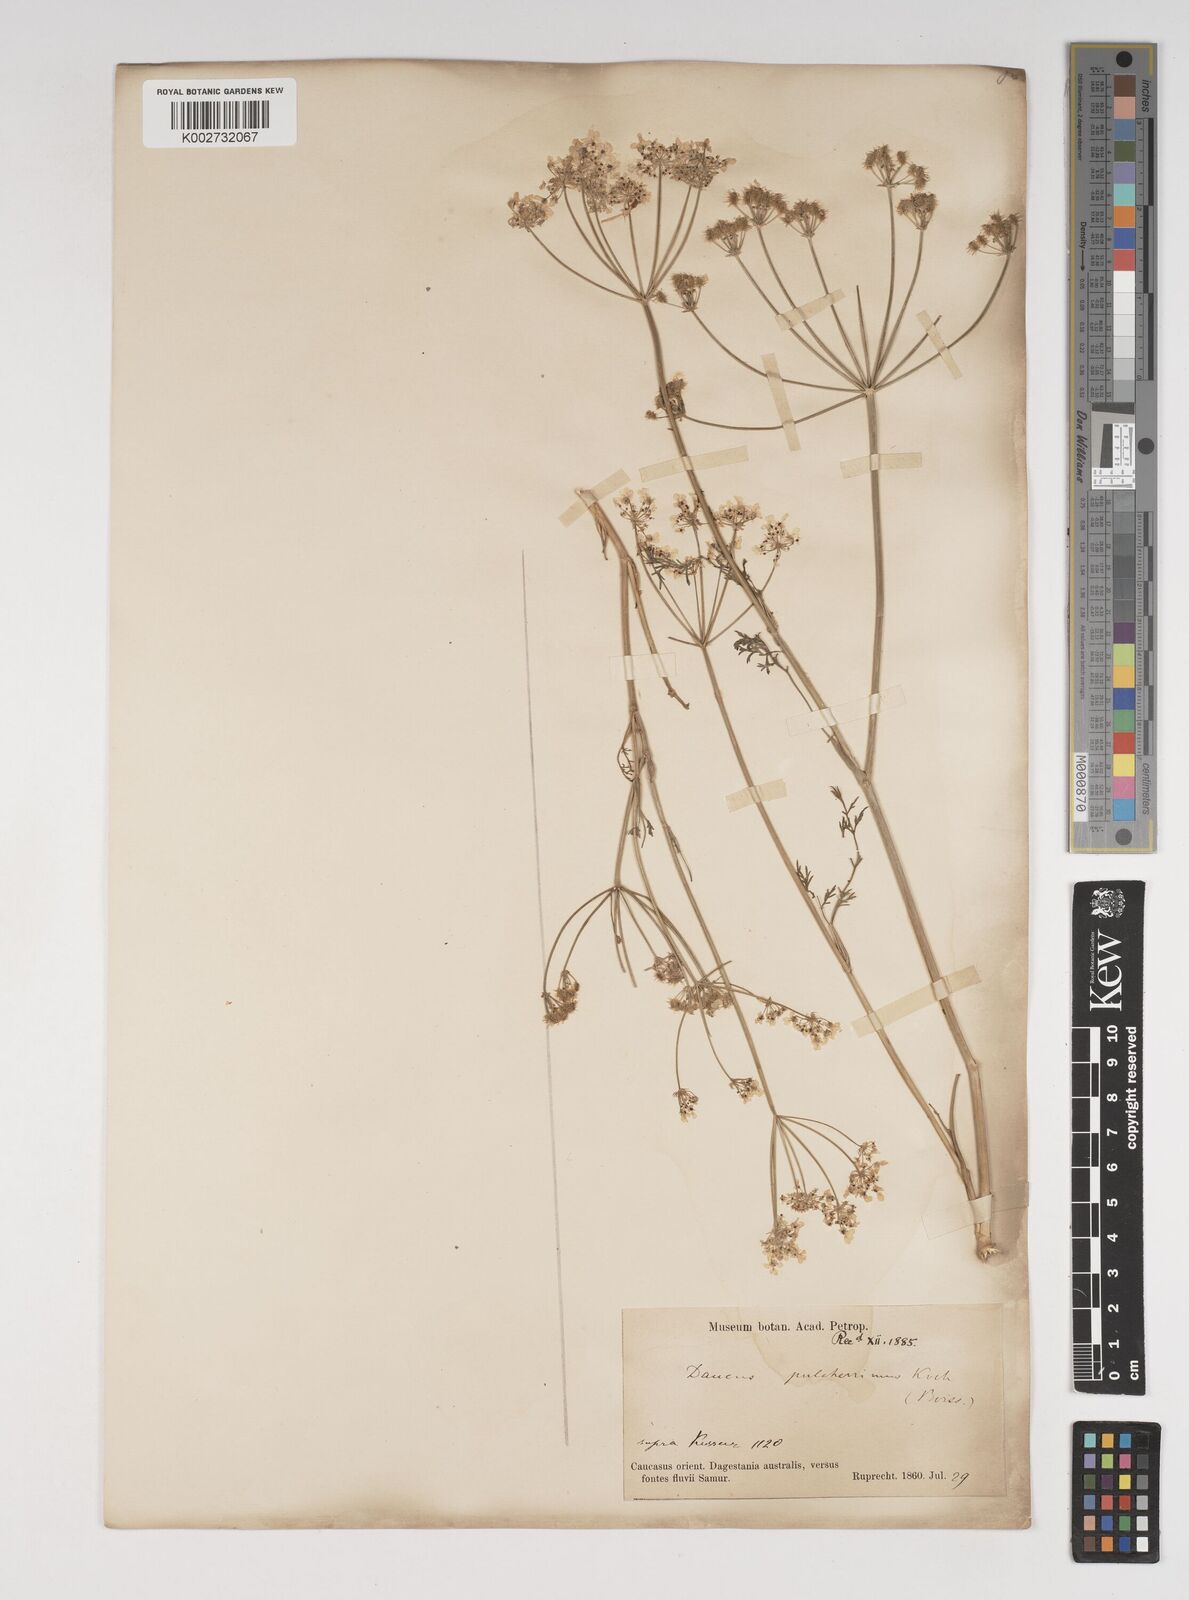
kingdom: Plantae
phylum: Tracheophyta
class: Magnoliopsida
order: Apiales
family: Apiaceae
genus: Astrodaucus
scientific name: Astrodaucus
